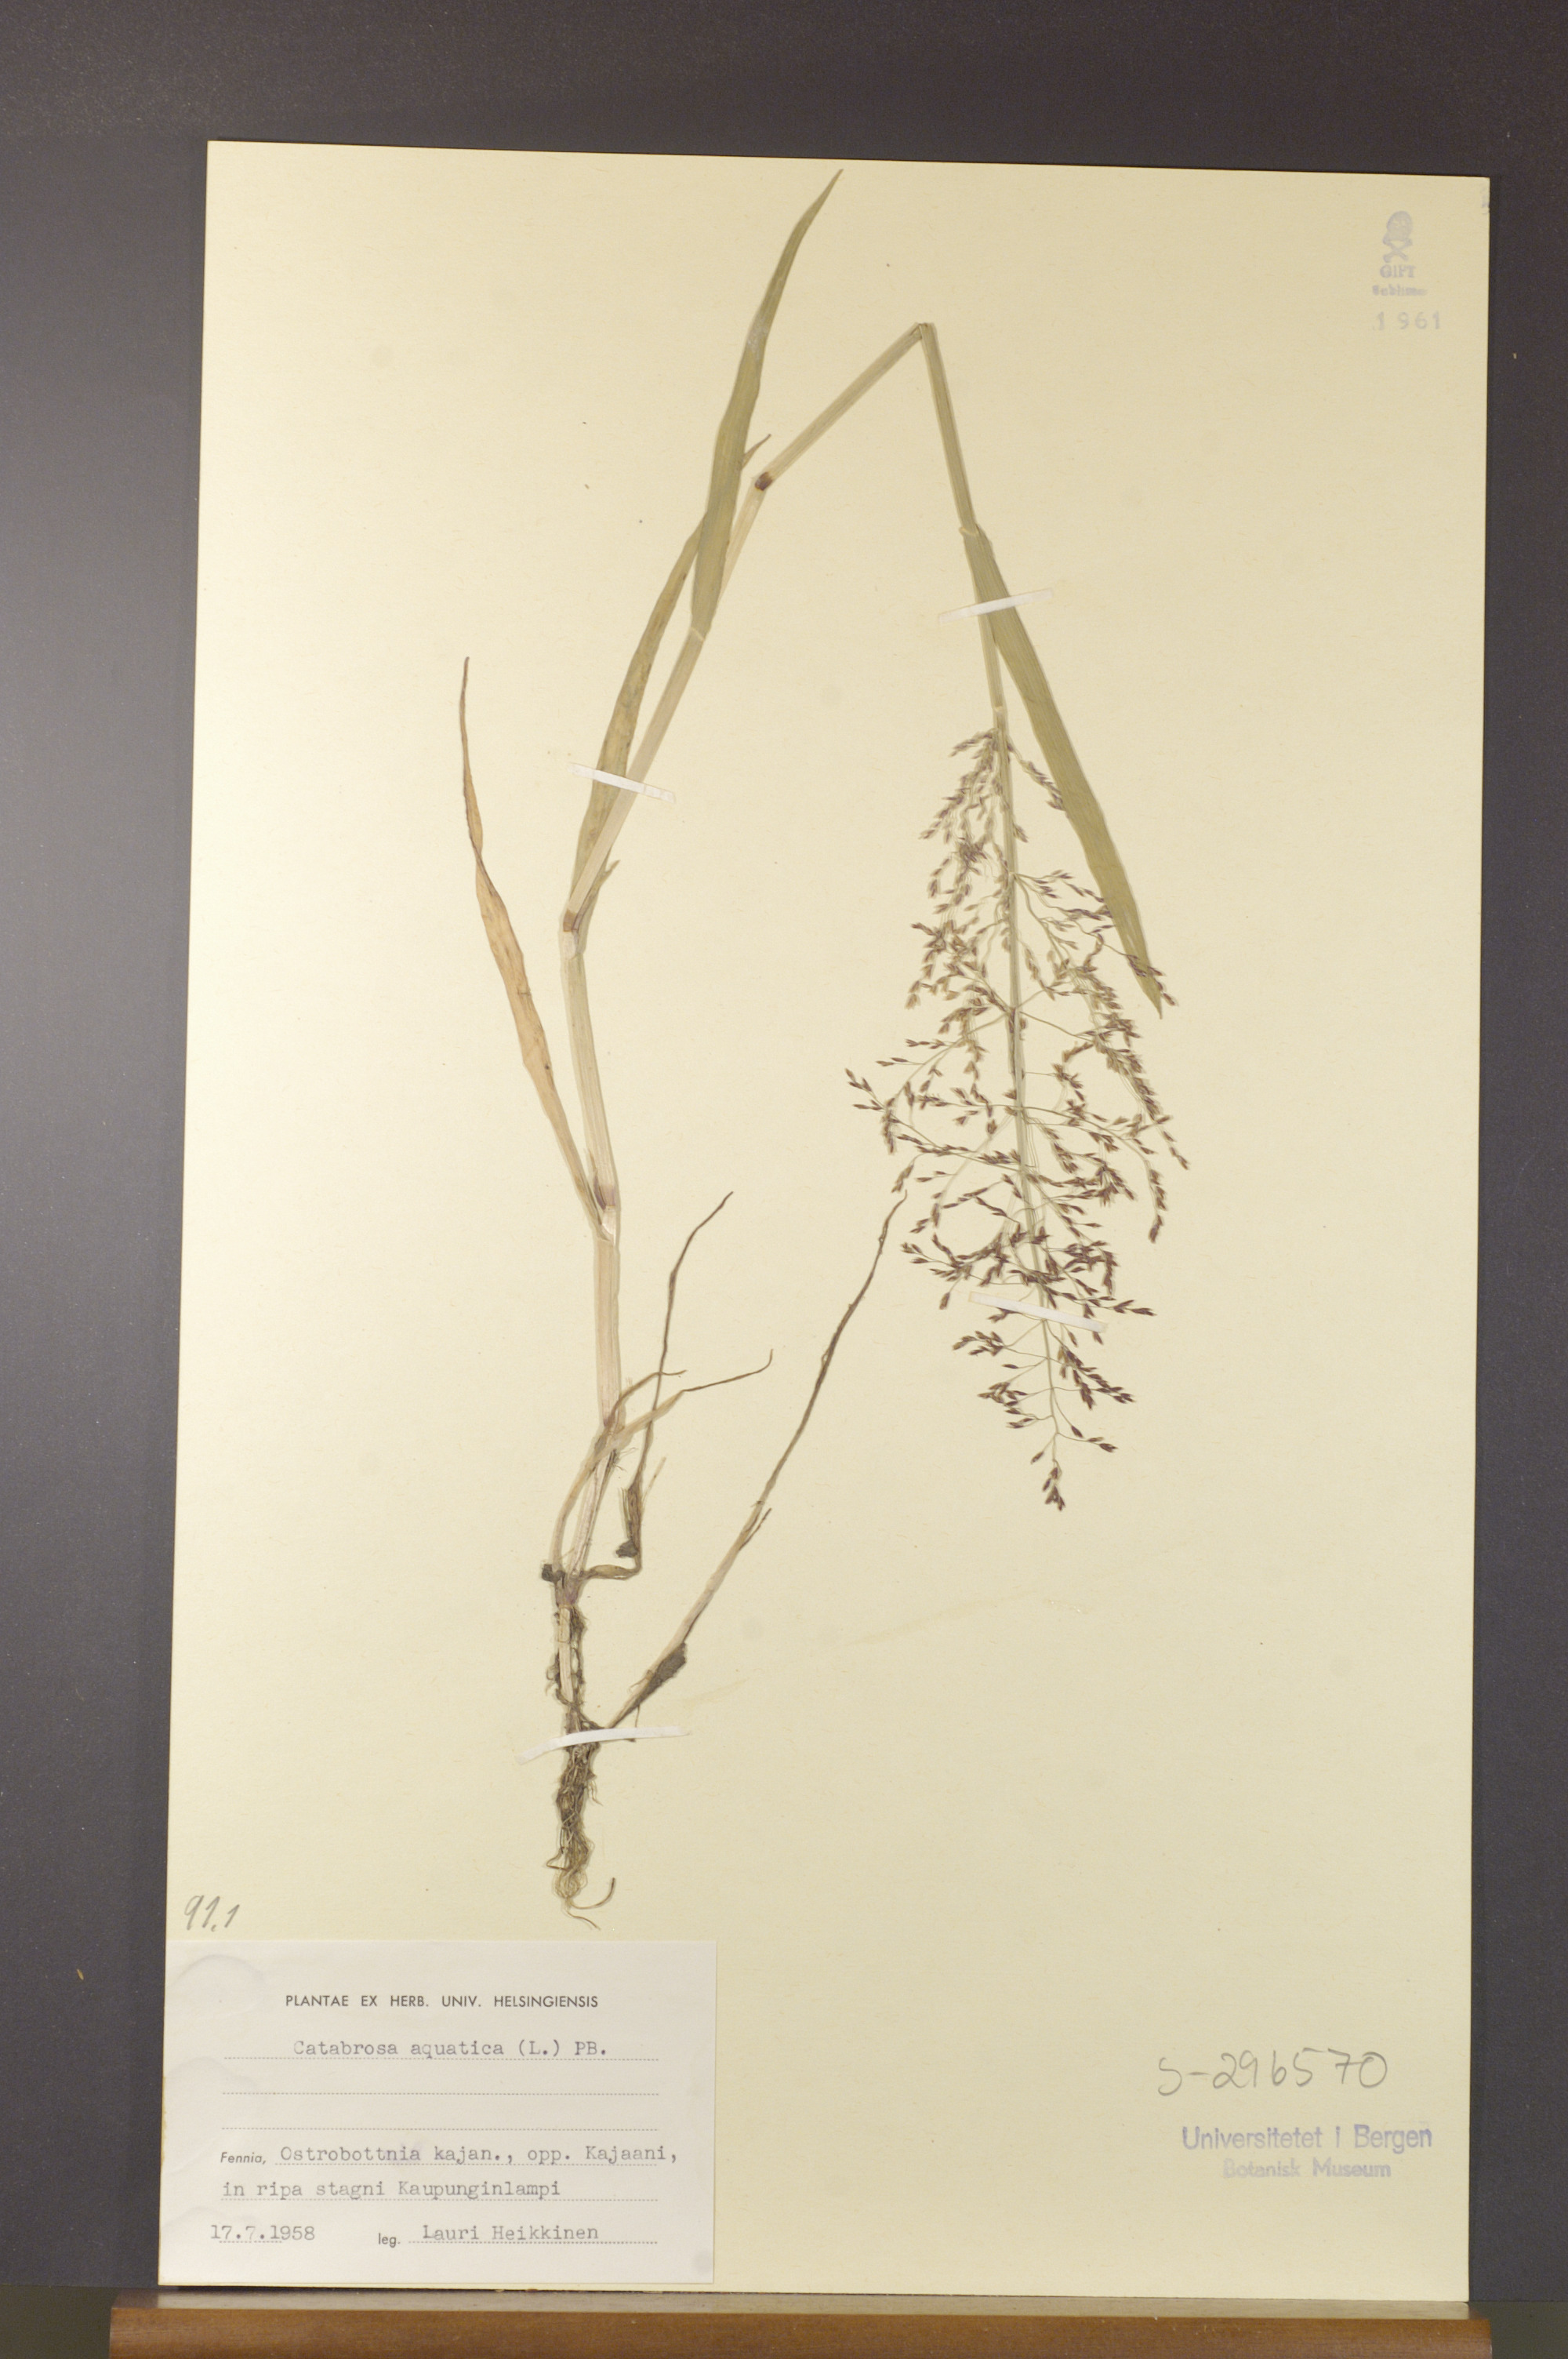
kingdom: Plantae
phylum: Tracheophyta
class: Liliopsida
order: Poales
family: Poaceae
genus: Catabrosa
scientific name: Catabrosa aquatica
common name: Whorl-grass
